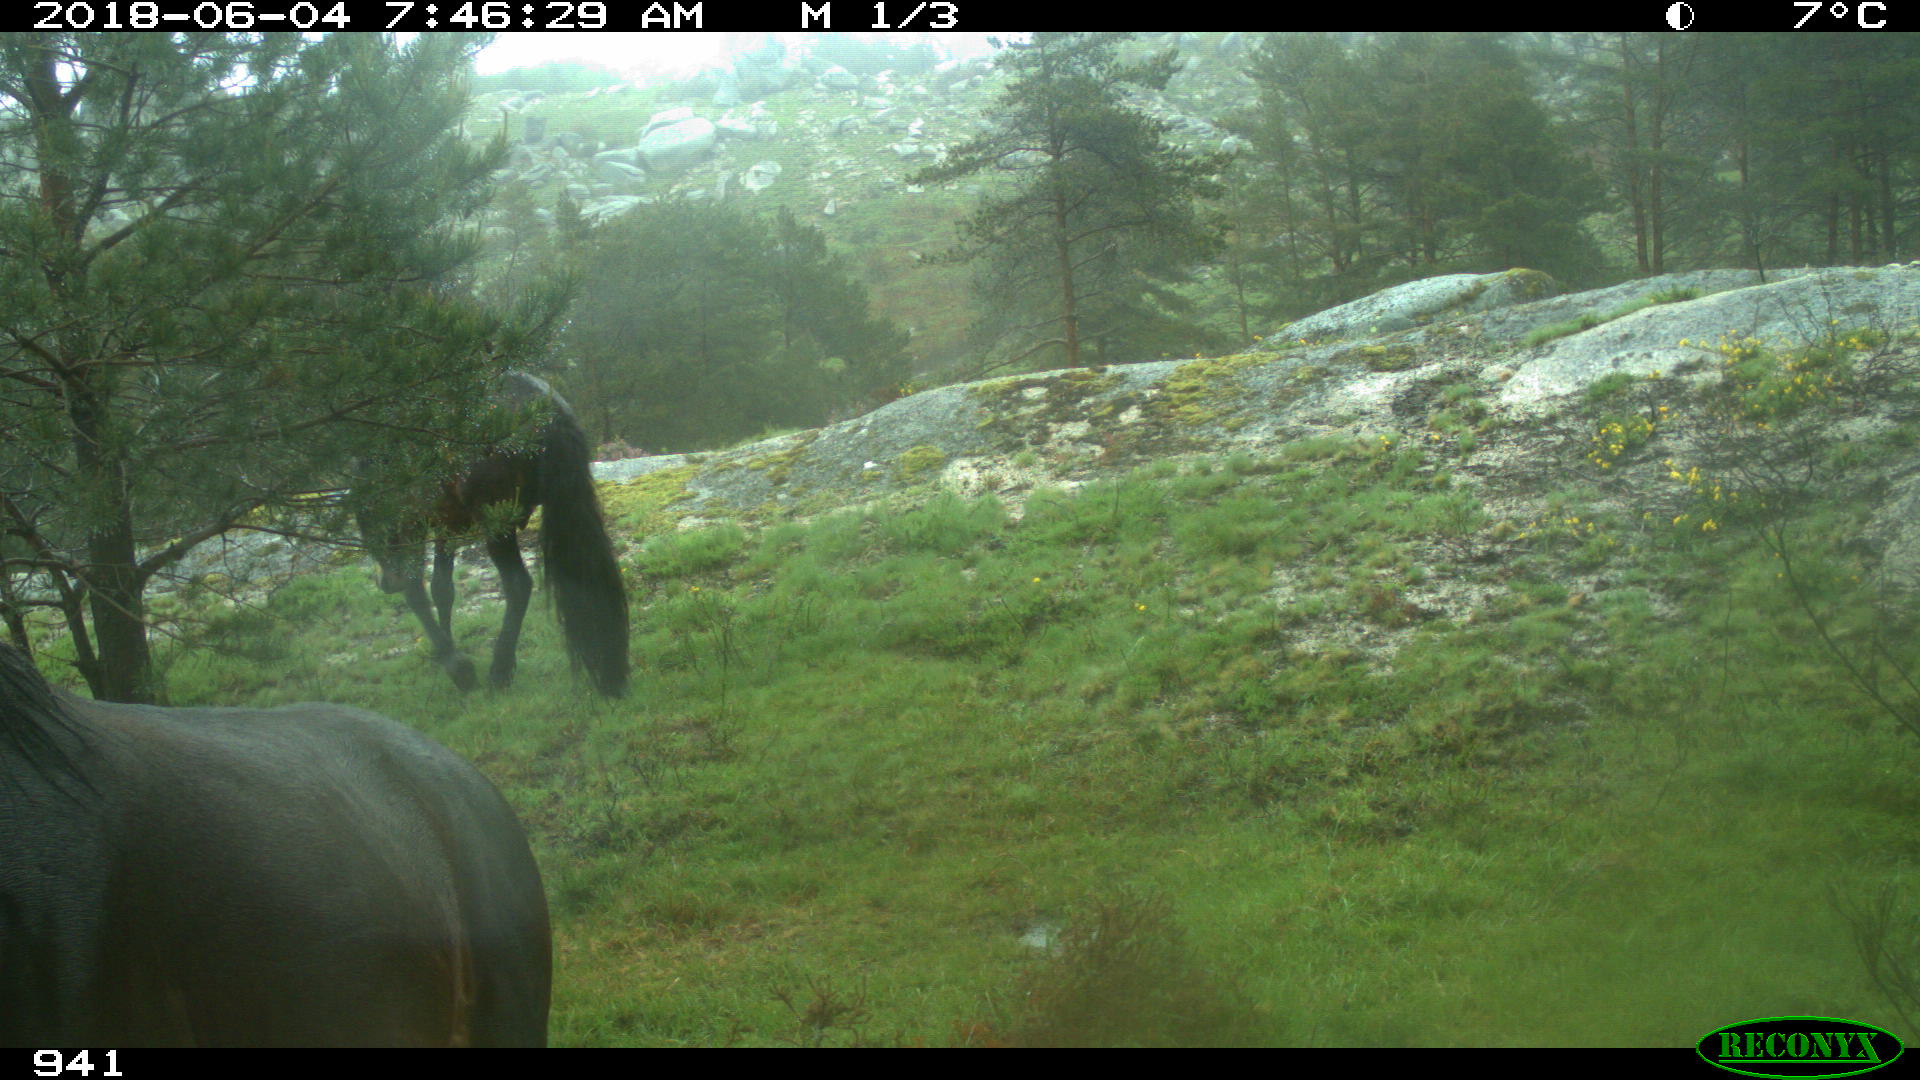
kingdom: Animalia
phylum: Chordata
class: Mammalia
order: Perissodactyla
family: Equidae
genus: Equus
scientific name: Equus caballus
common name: Horse
